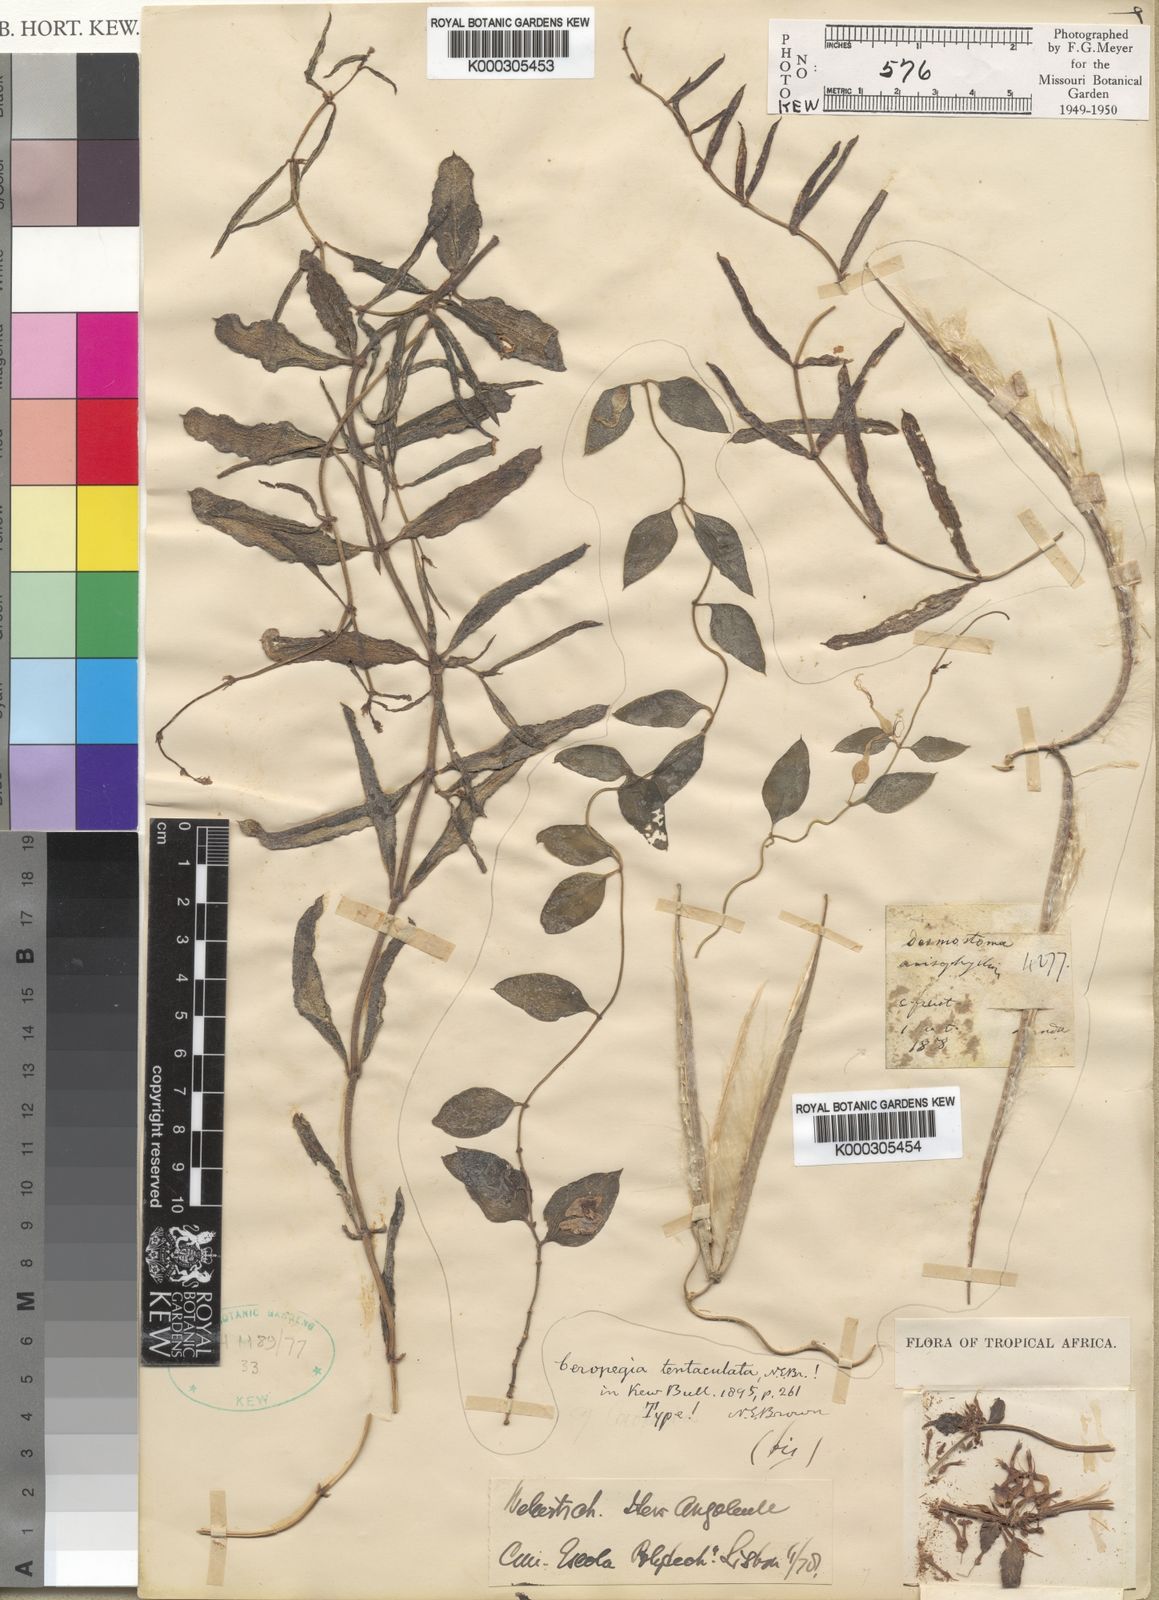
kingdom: Plantae
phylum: Tracheophyta
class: Magnoliopsida
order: Gentianales
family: Apocynaceae
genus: Ceropegia
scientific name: Ceropegia multiflora
